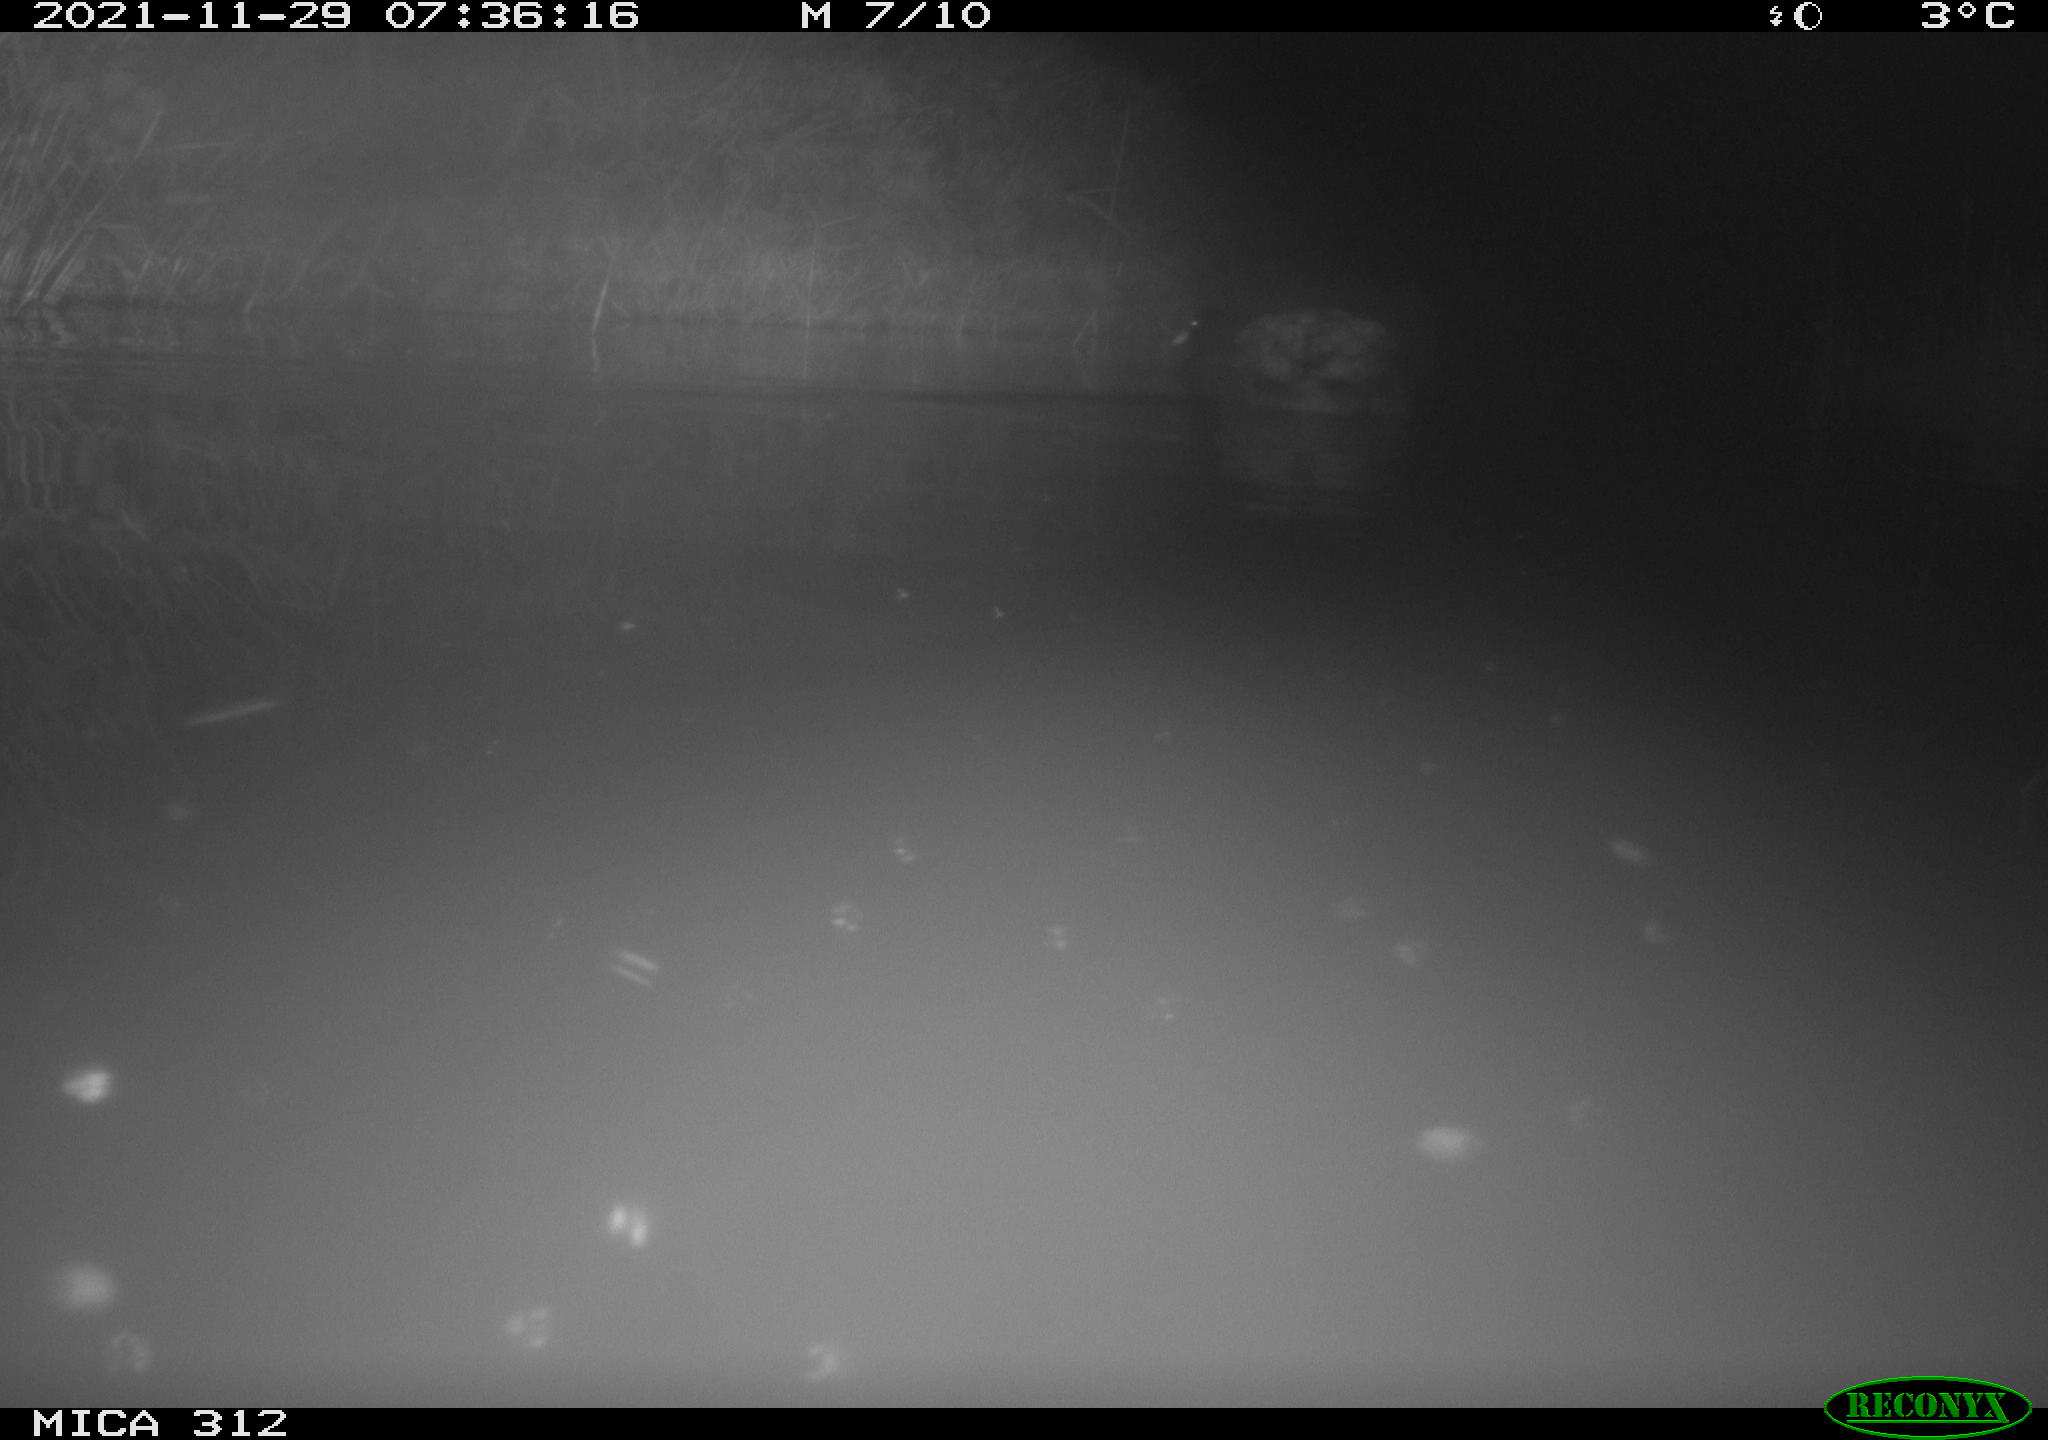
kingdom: Animalia
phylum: Chordata
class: Aves
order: Gruiformes
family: Rallidae
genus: Fulica
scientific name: Fulica atra
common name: Eurasian coot
